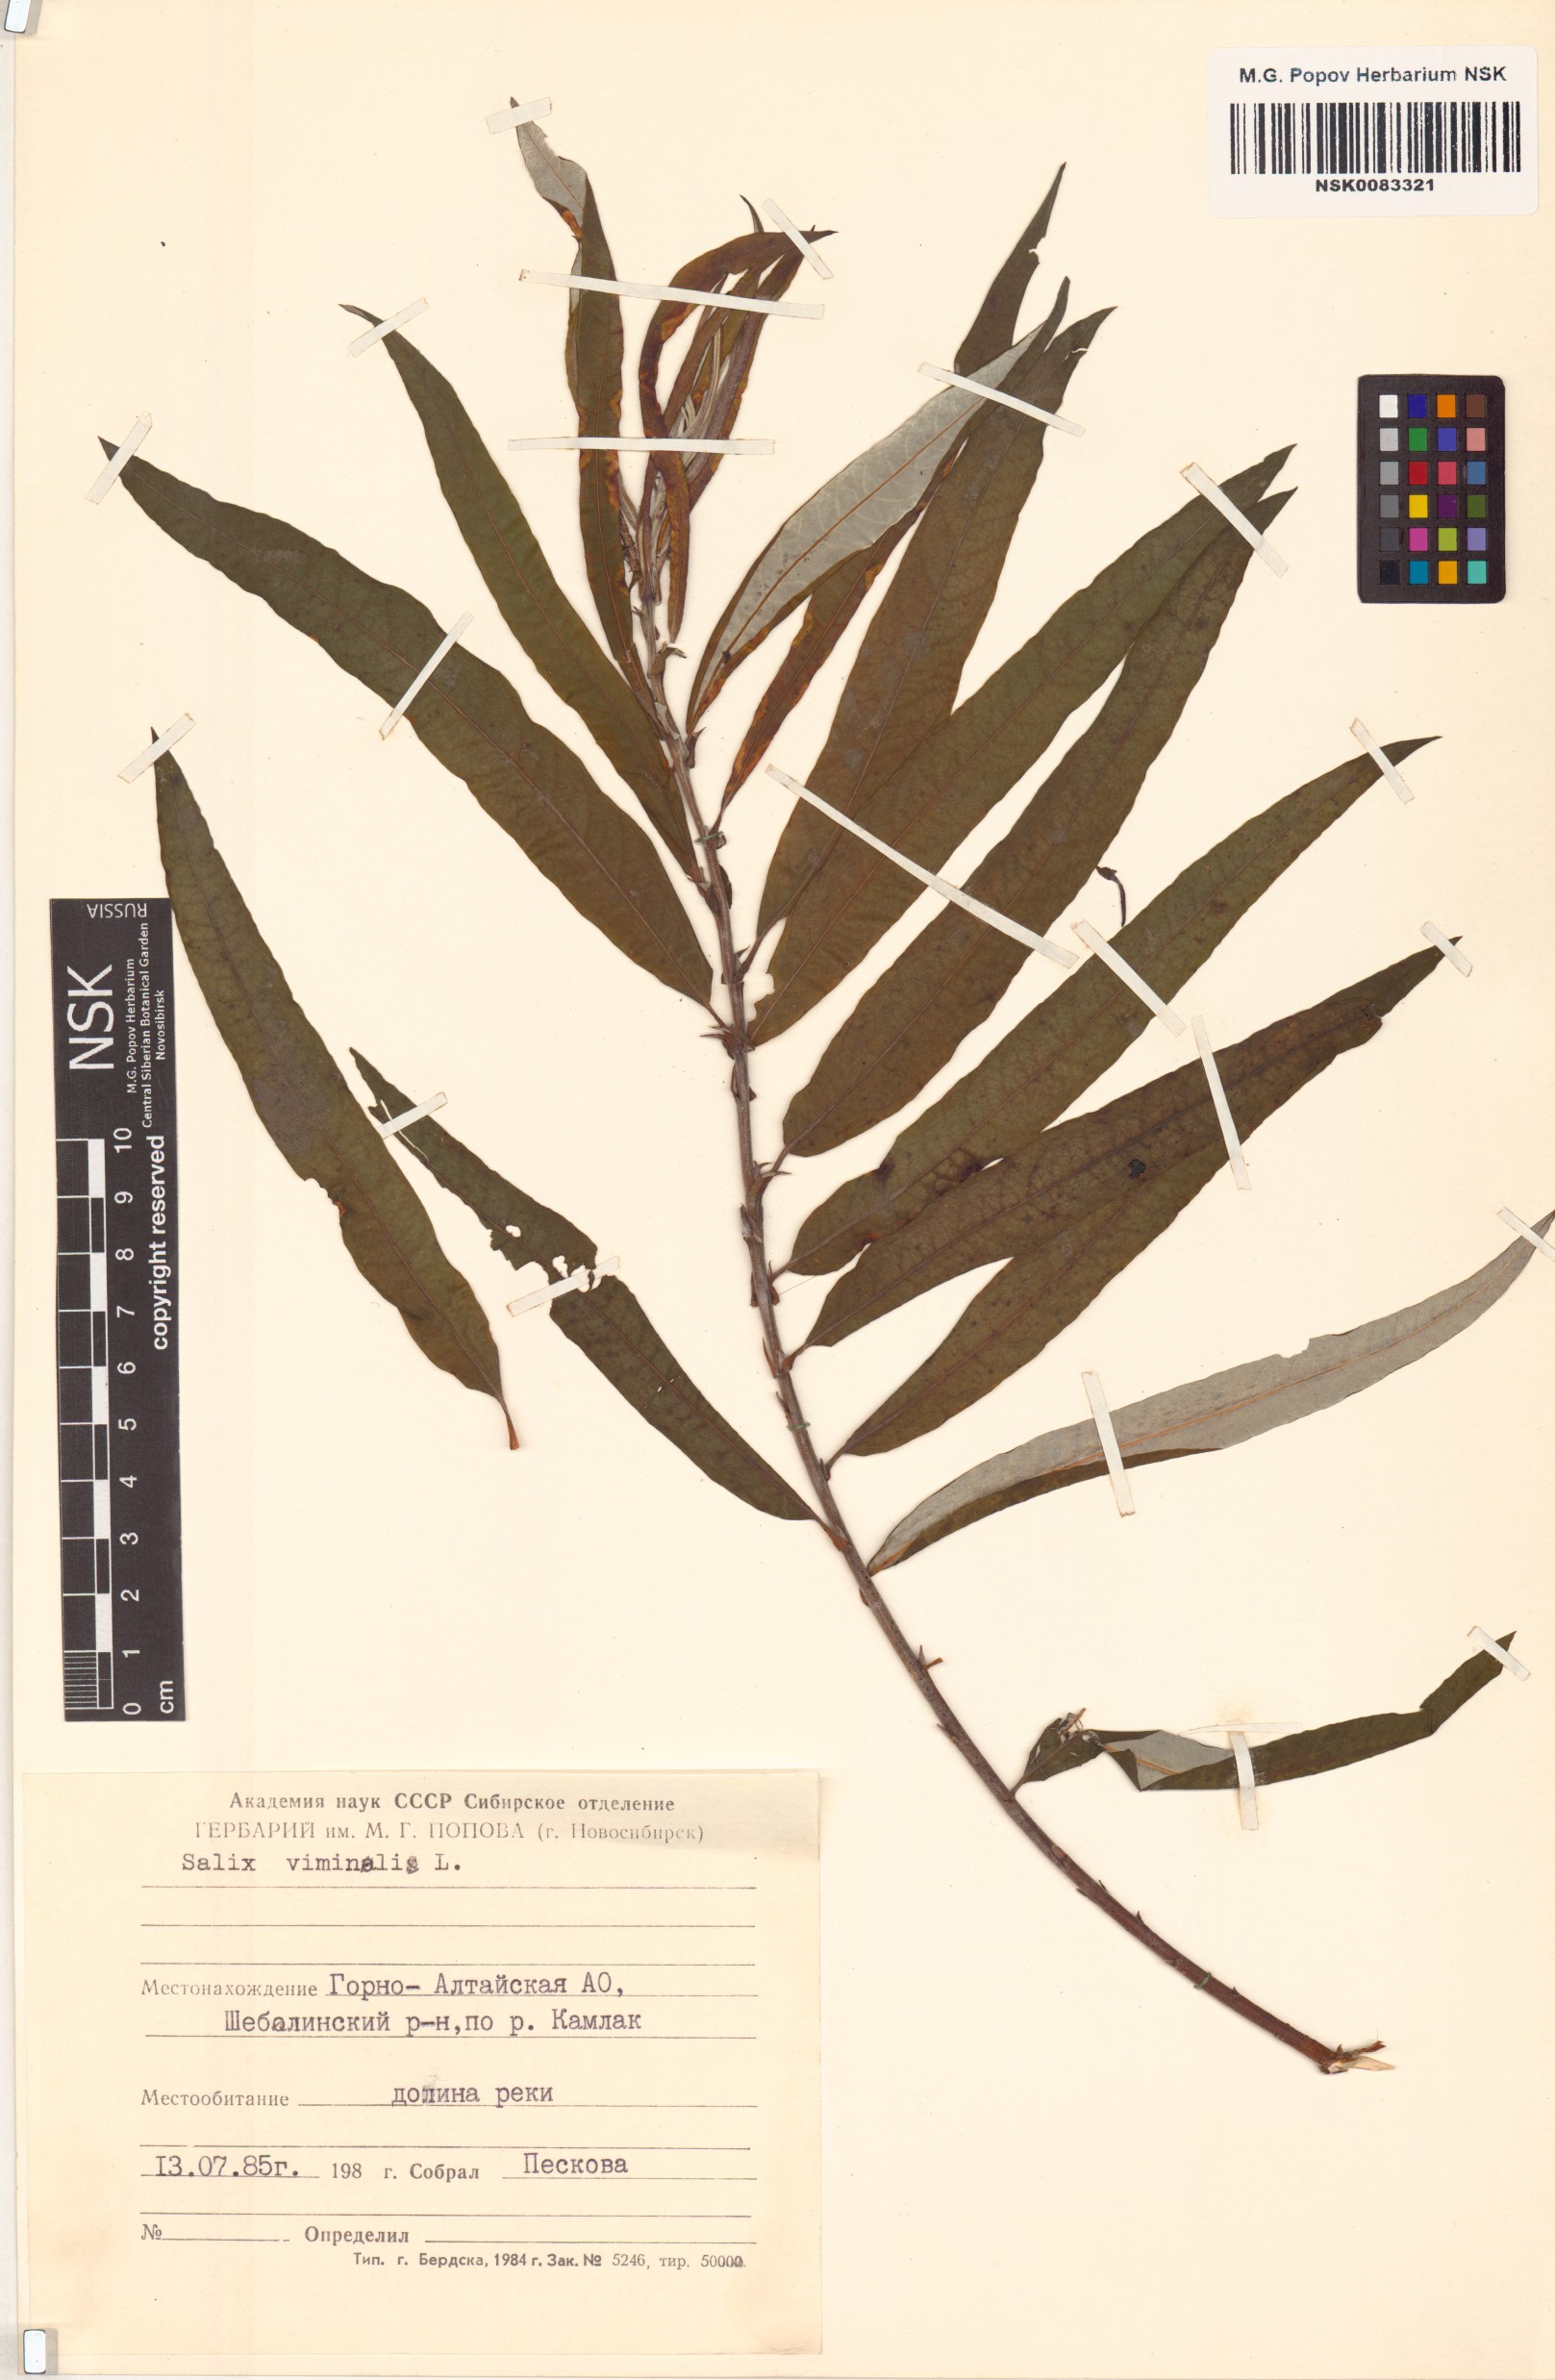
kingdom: Plantae
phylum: Tracheophyta
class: Magnoliopsida
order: Malpighiales
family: Salicaceae
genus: Salix
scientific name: Salix viminalis
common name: Osier
